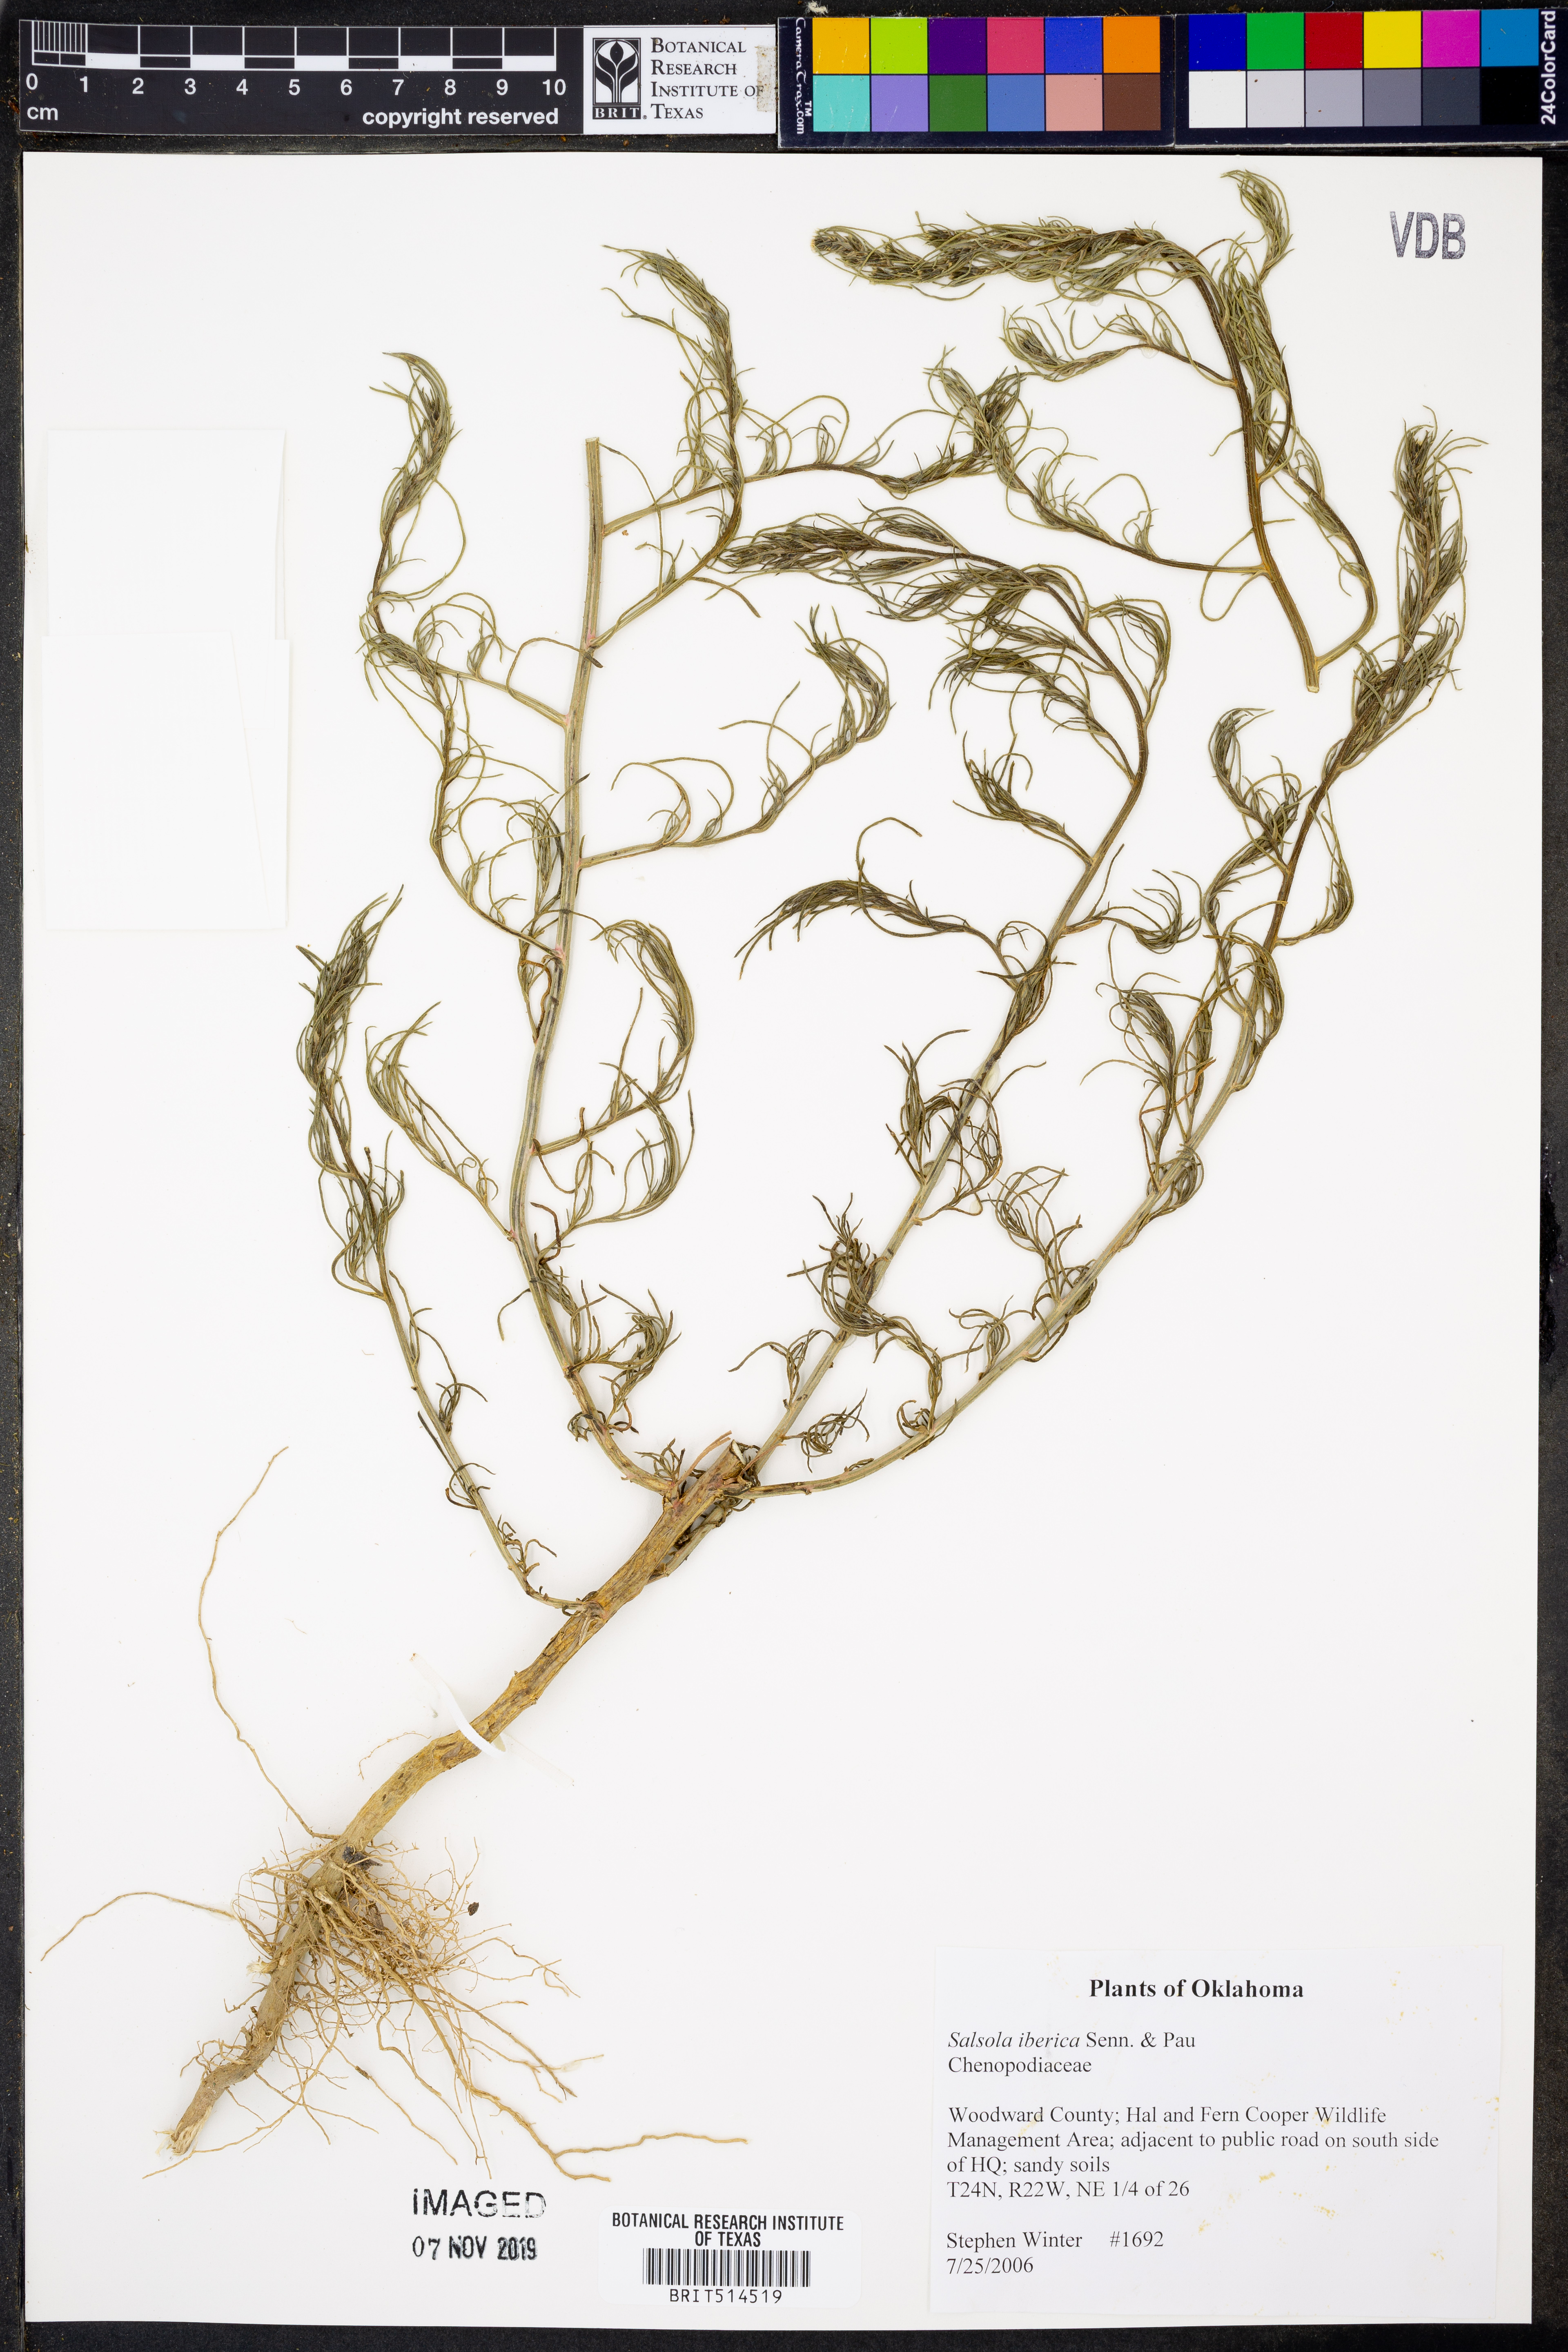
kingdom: Plantae
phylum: Tracheophyta
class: Magnoliopsida
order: Caryophyllales
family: Amaranthaceae
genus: Salsola
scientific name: Salsola tragus
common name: Prickly russian thistle
